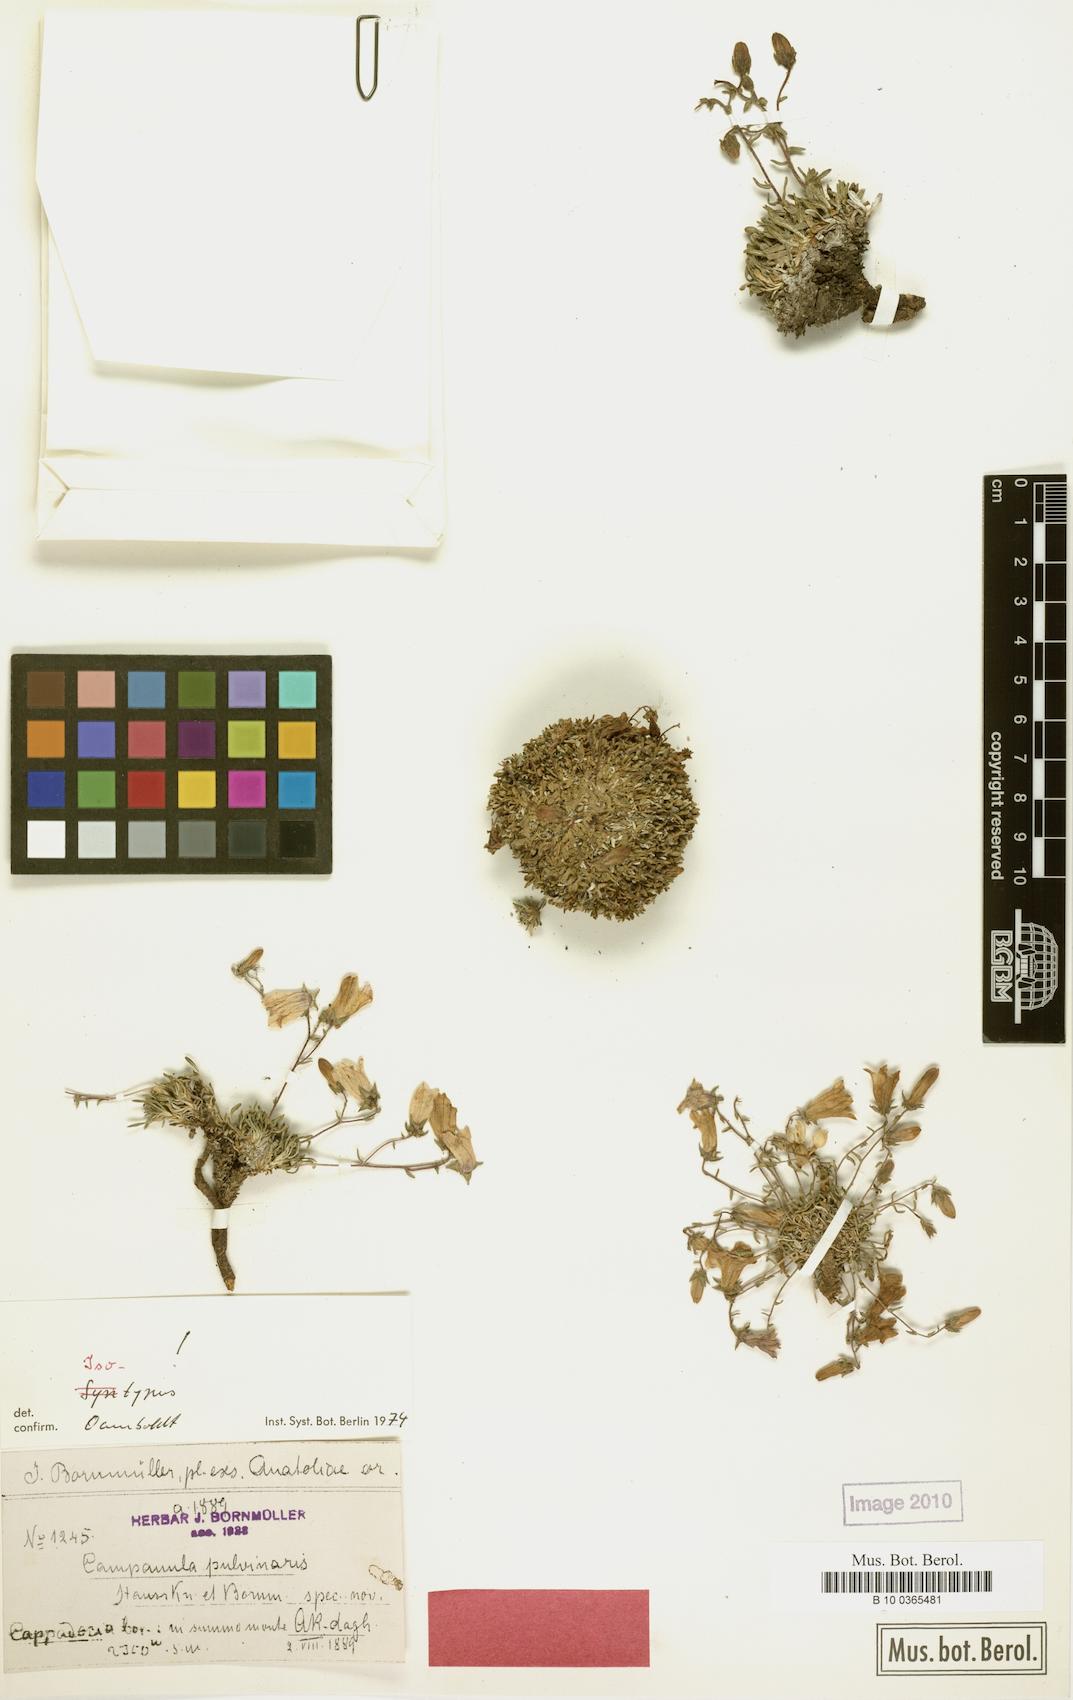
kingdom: Plantae
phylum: Tracheophyta
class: Magnoliopsida
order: Asterales
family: Campanulaceae
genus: Campanula
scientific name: Campanula pulvinaris
